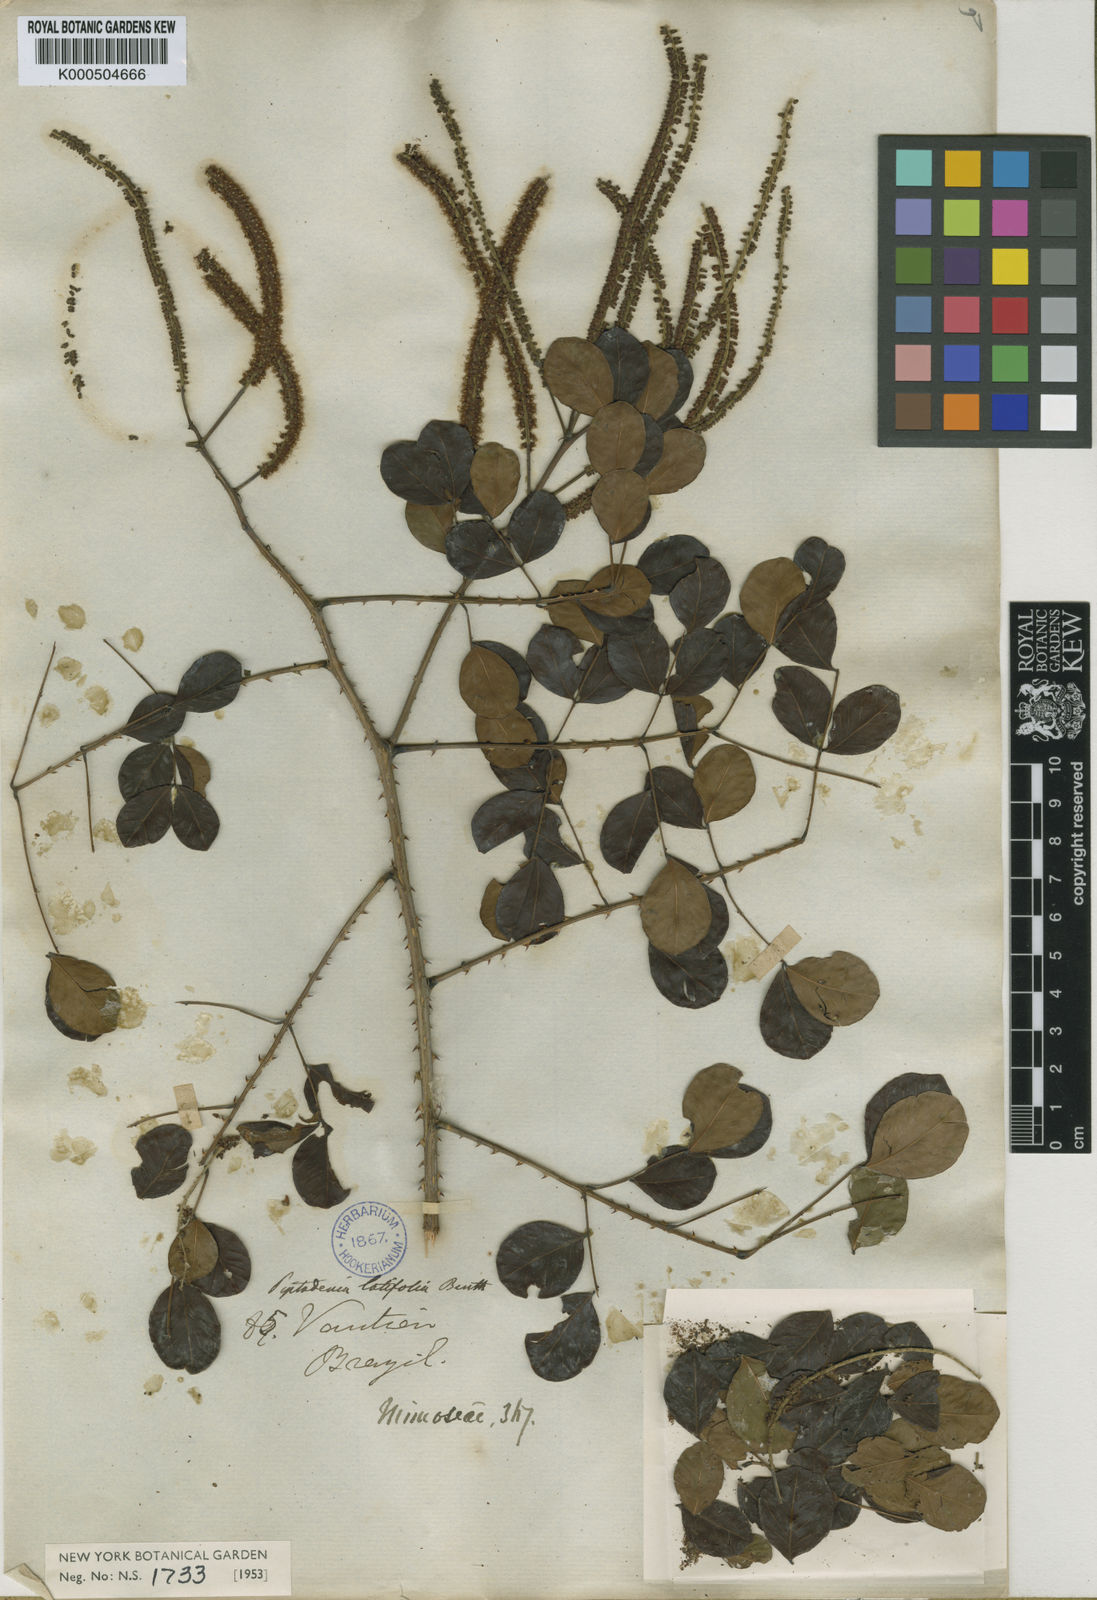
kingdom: Plantae
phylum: Tracheophyta
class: Magnoliopsida
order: Fabales
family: Fabaceae
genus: Piptadenia
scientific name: Piptadenia adiantoides
